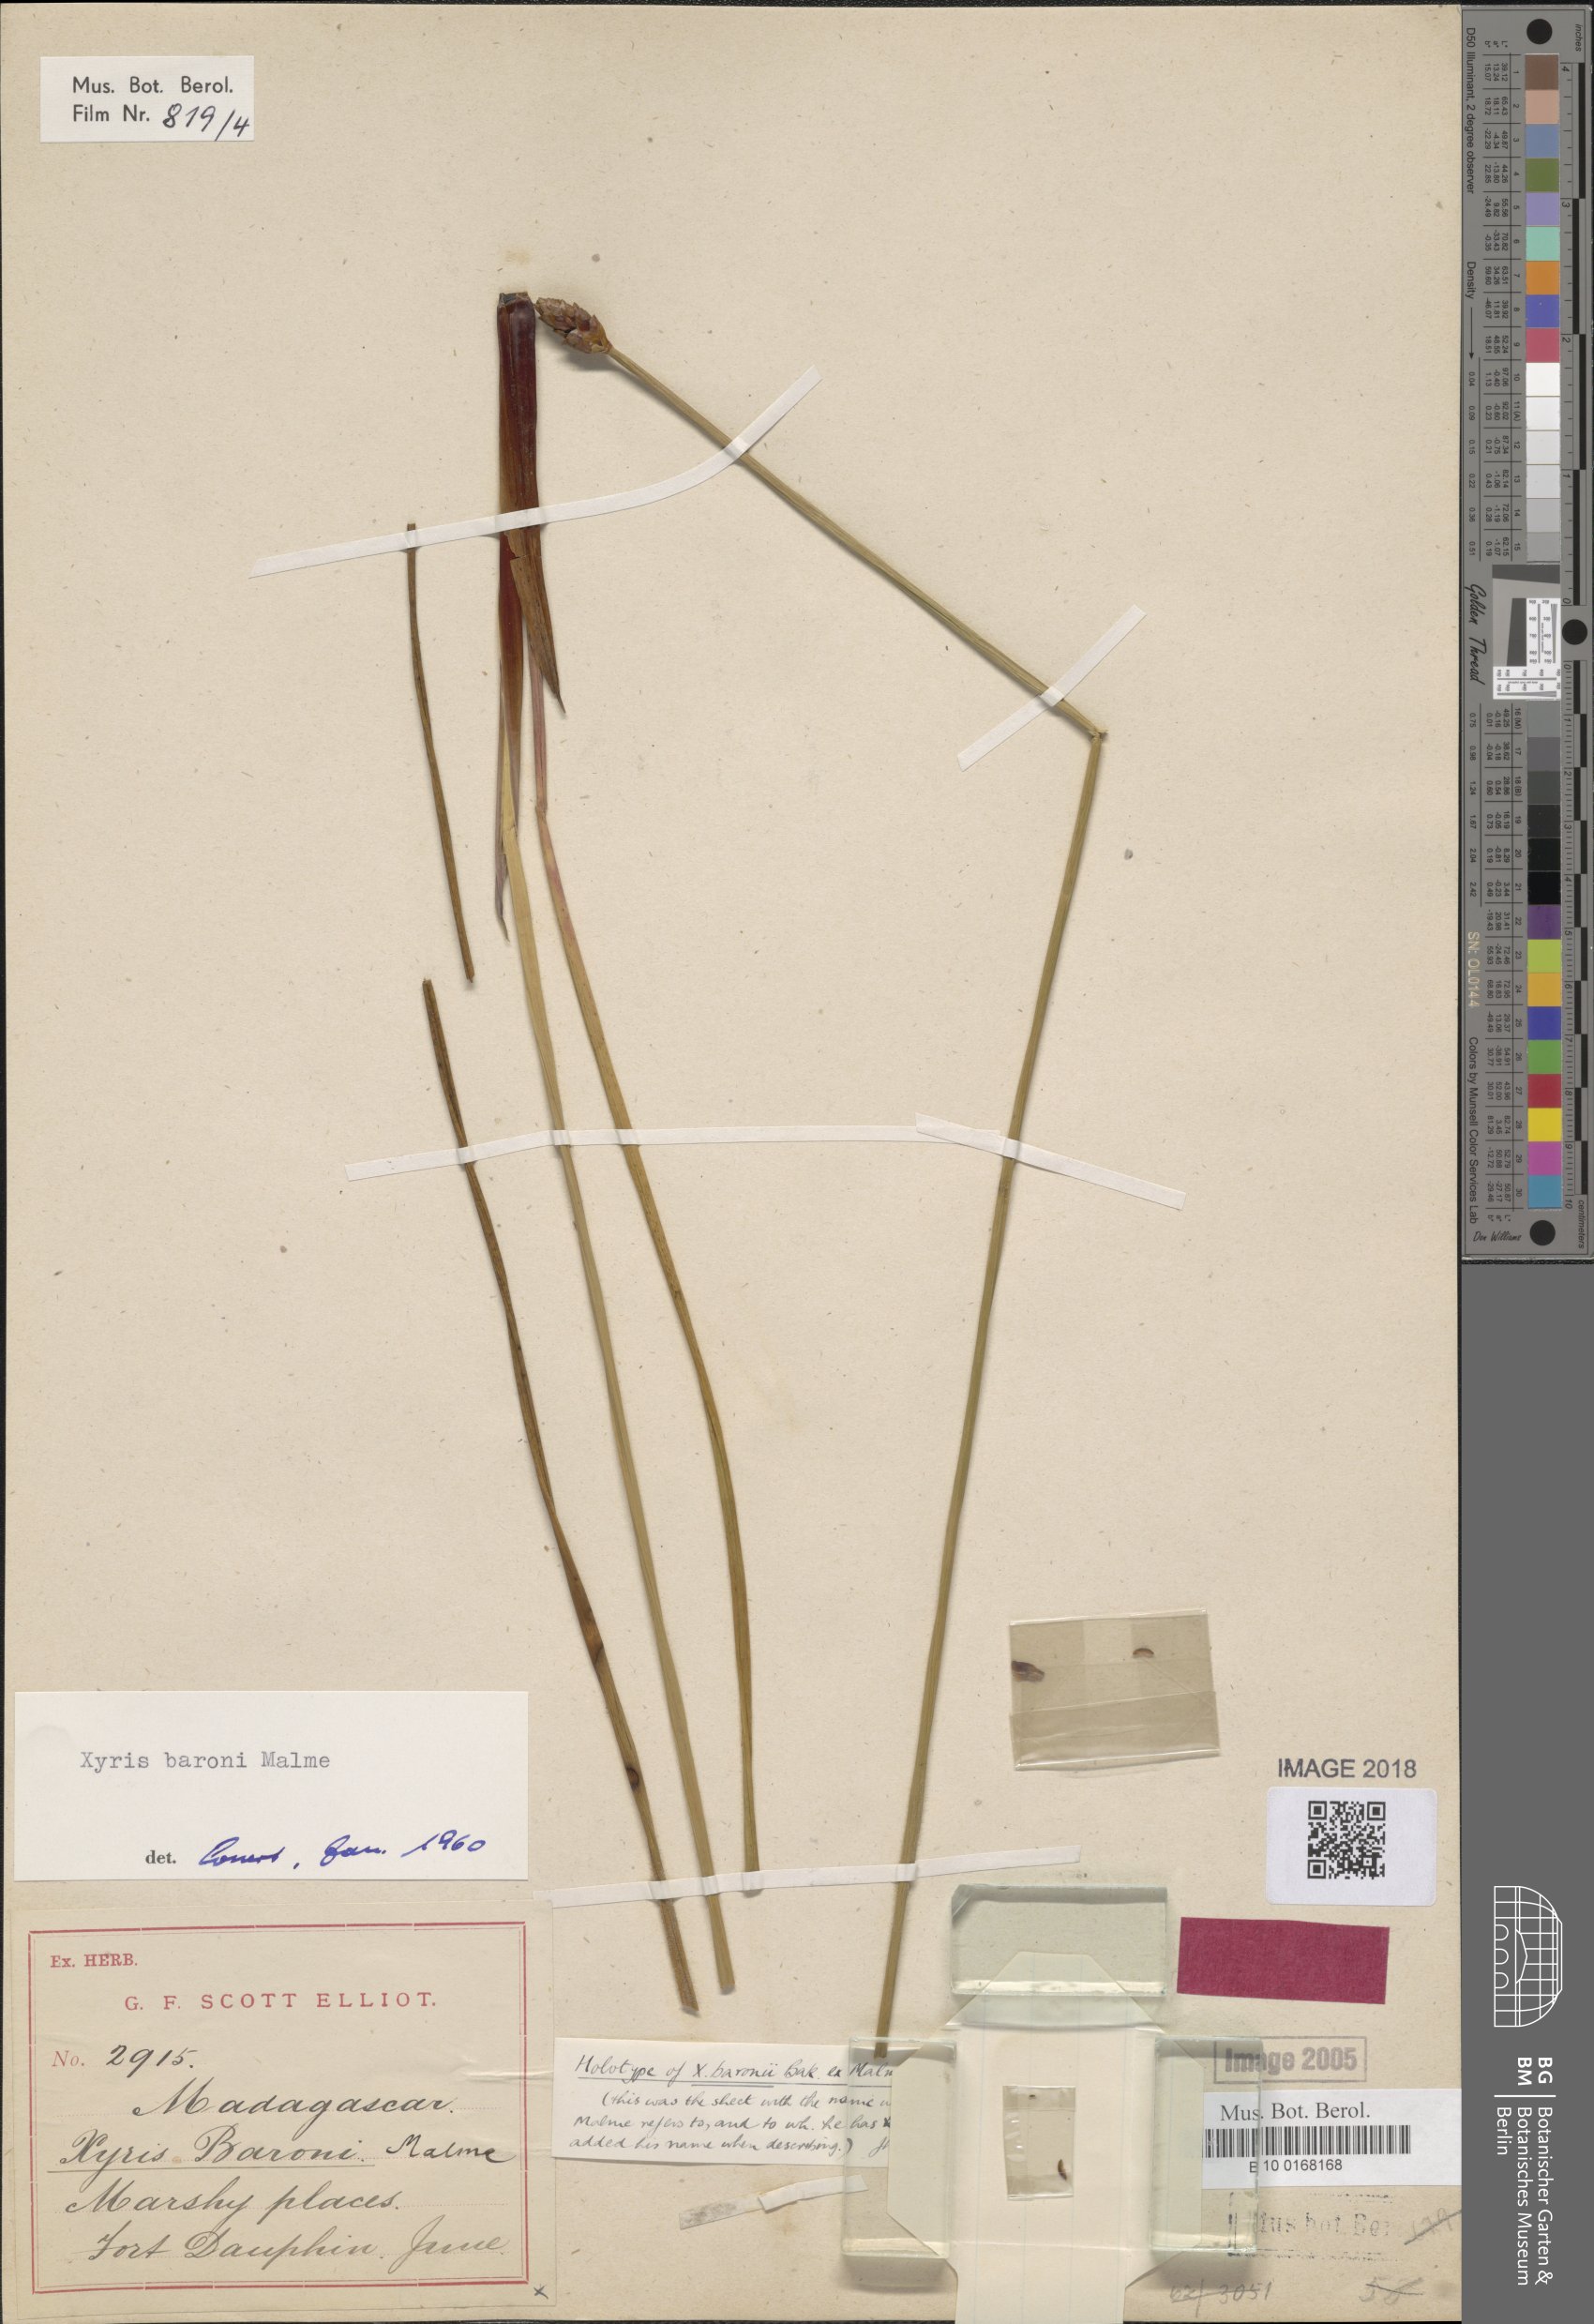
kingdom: Plantae
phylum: Tracheophyta
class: Liliopsida
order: Poales
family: Xyridaceae
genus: Xyris
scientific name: Xyris congensis
